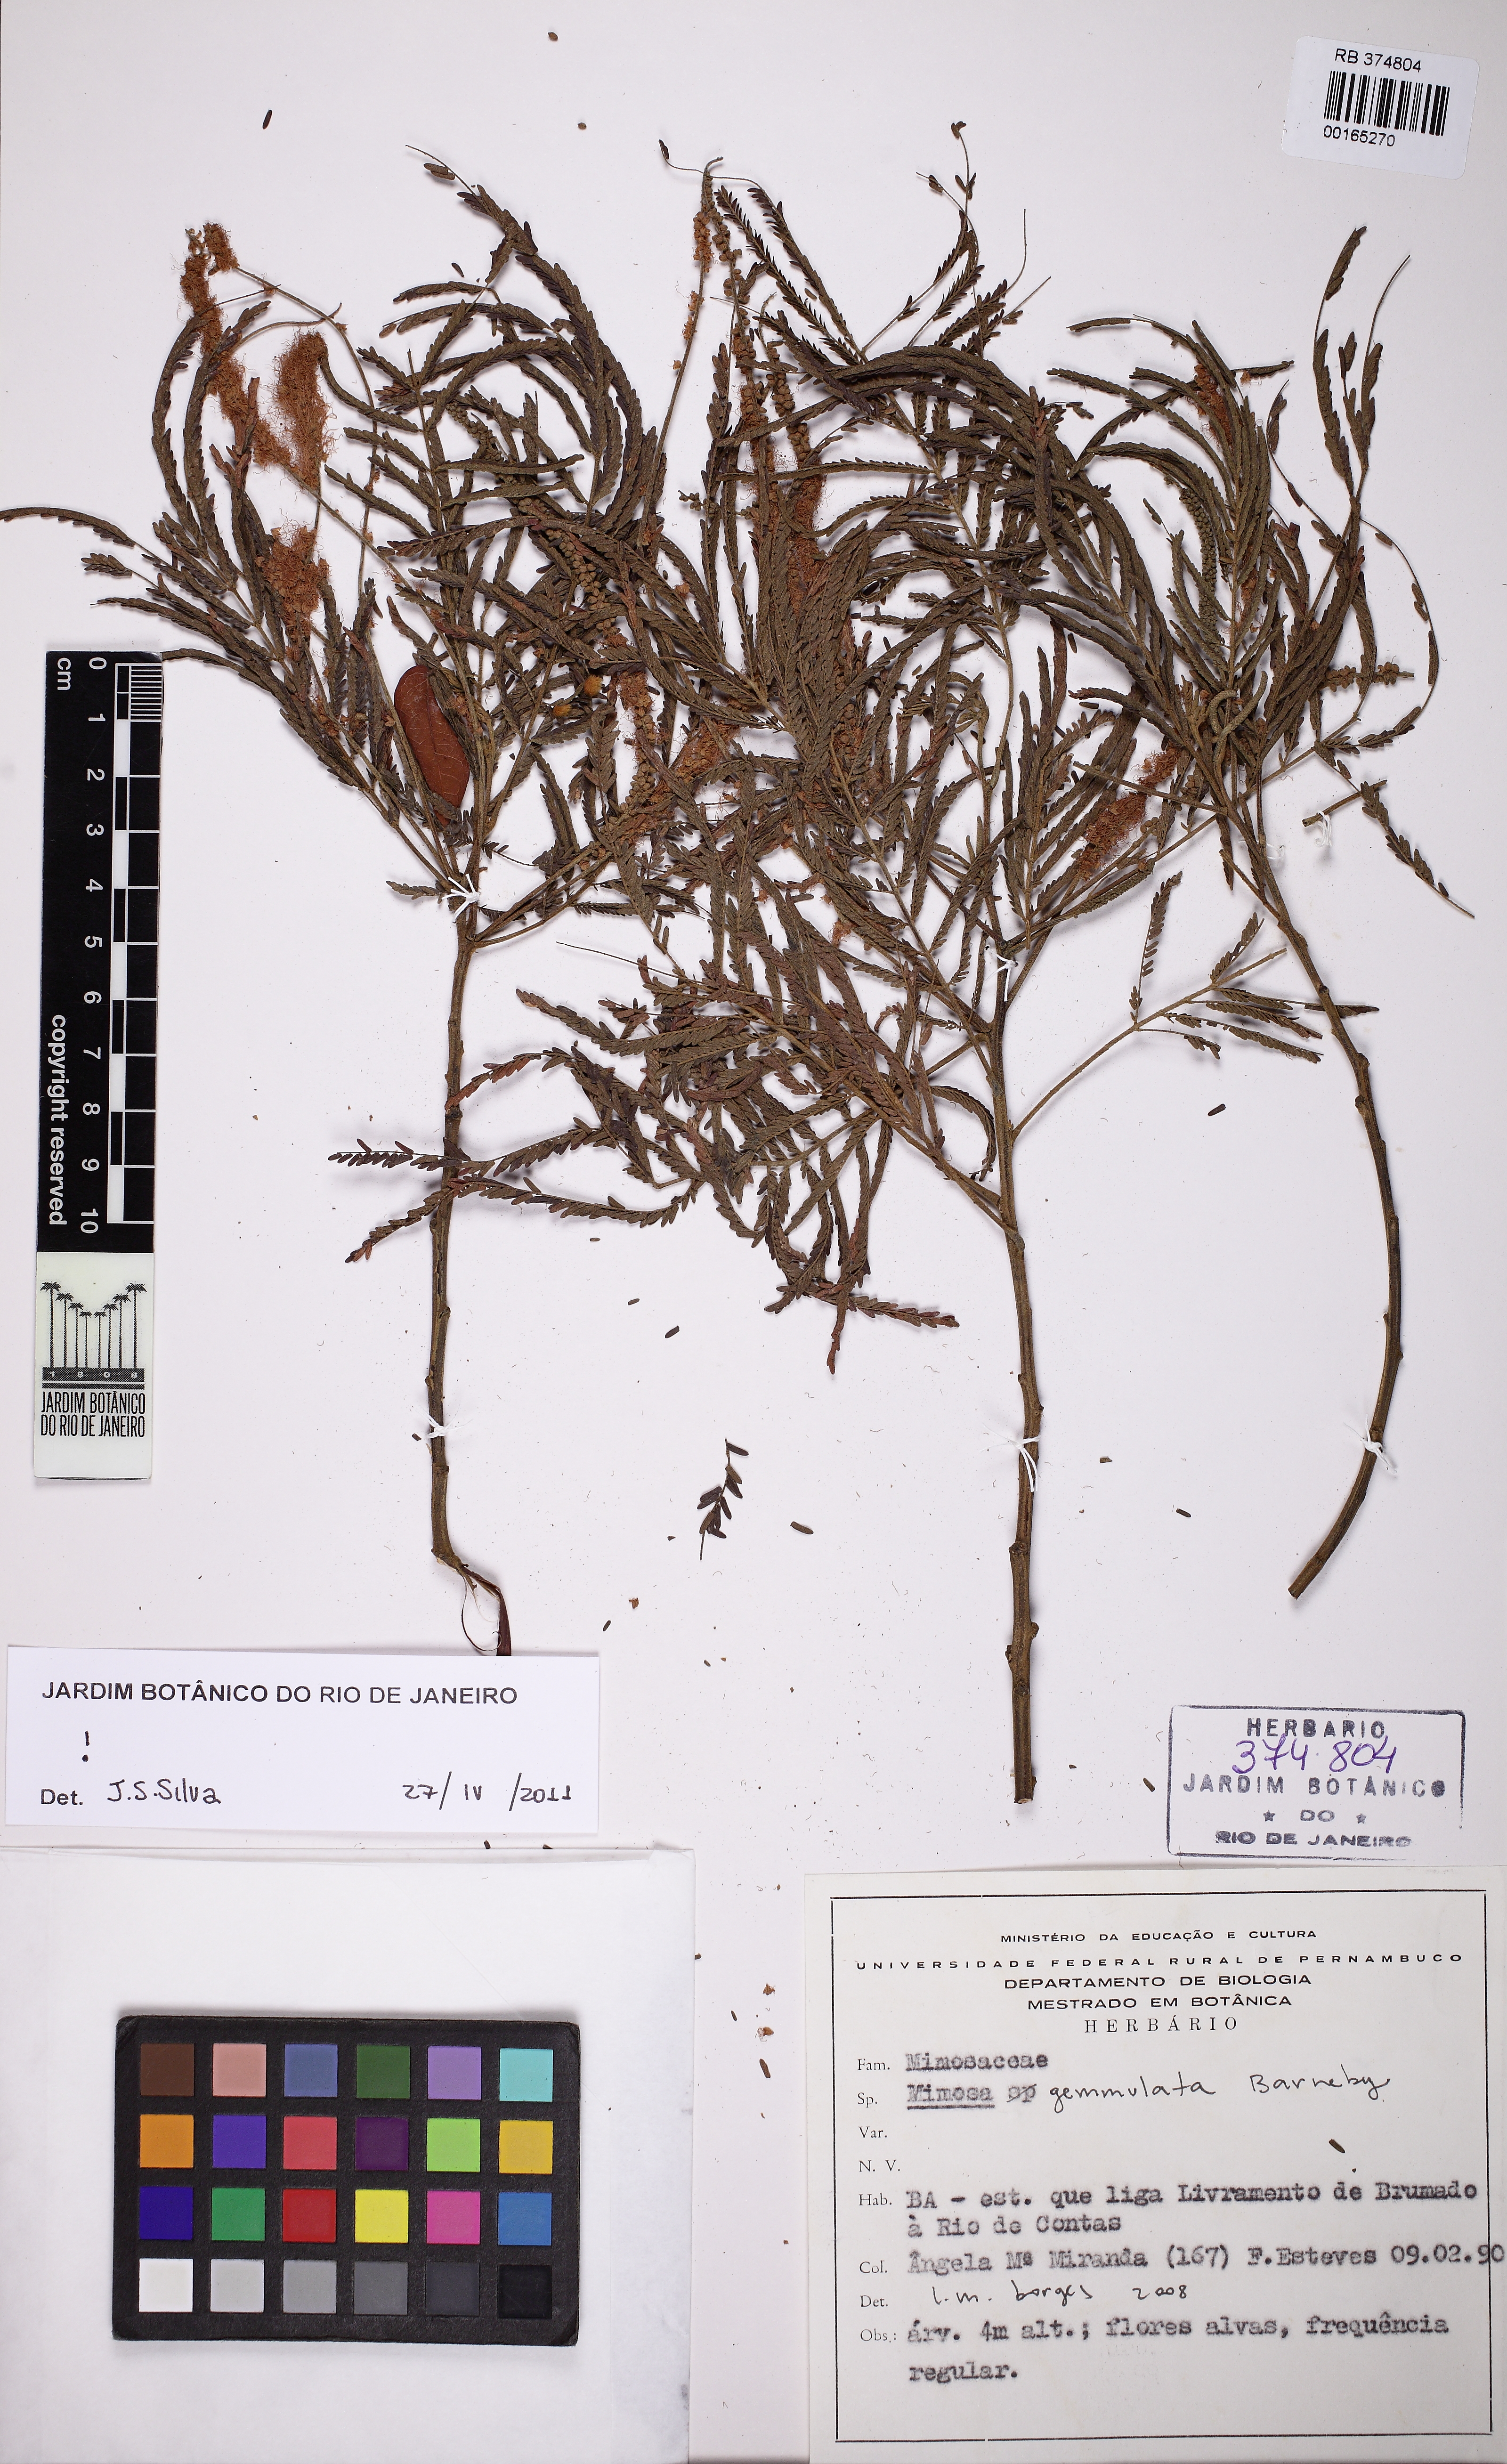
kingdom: Plantae
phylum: Tracheophyta
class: Magnoliopsida
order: Fabales
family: Fabaceae
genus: Mimosa
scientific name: Mimosa gemmulata
